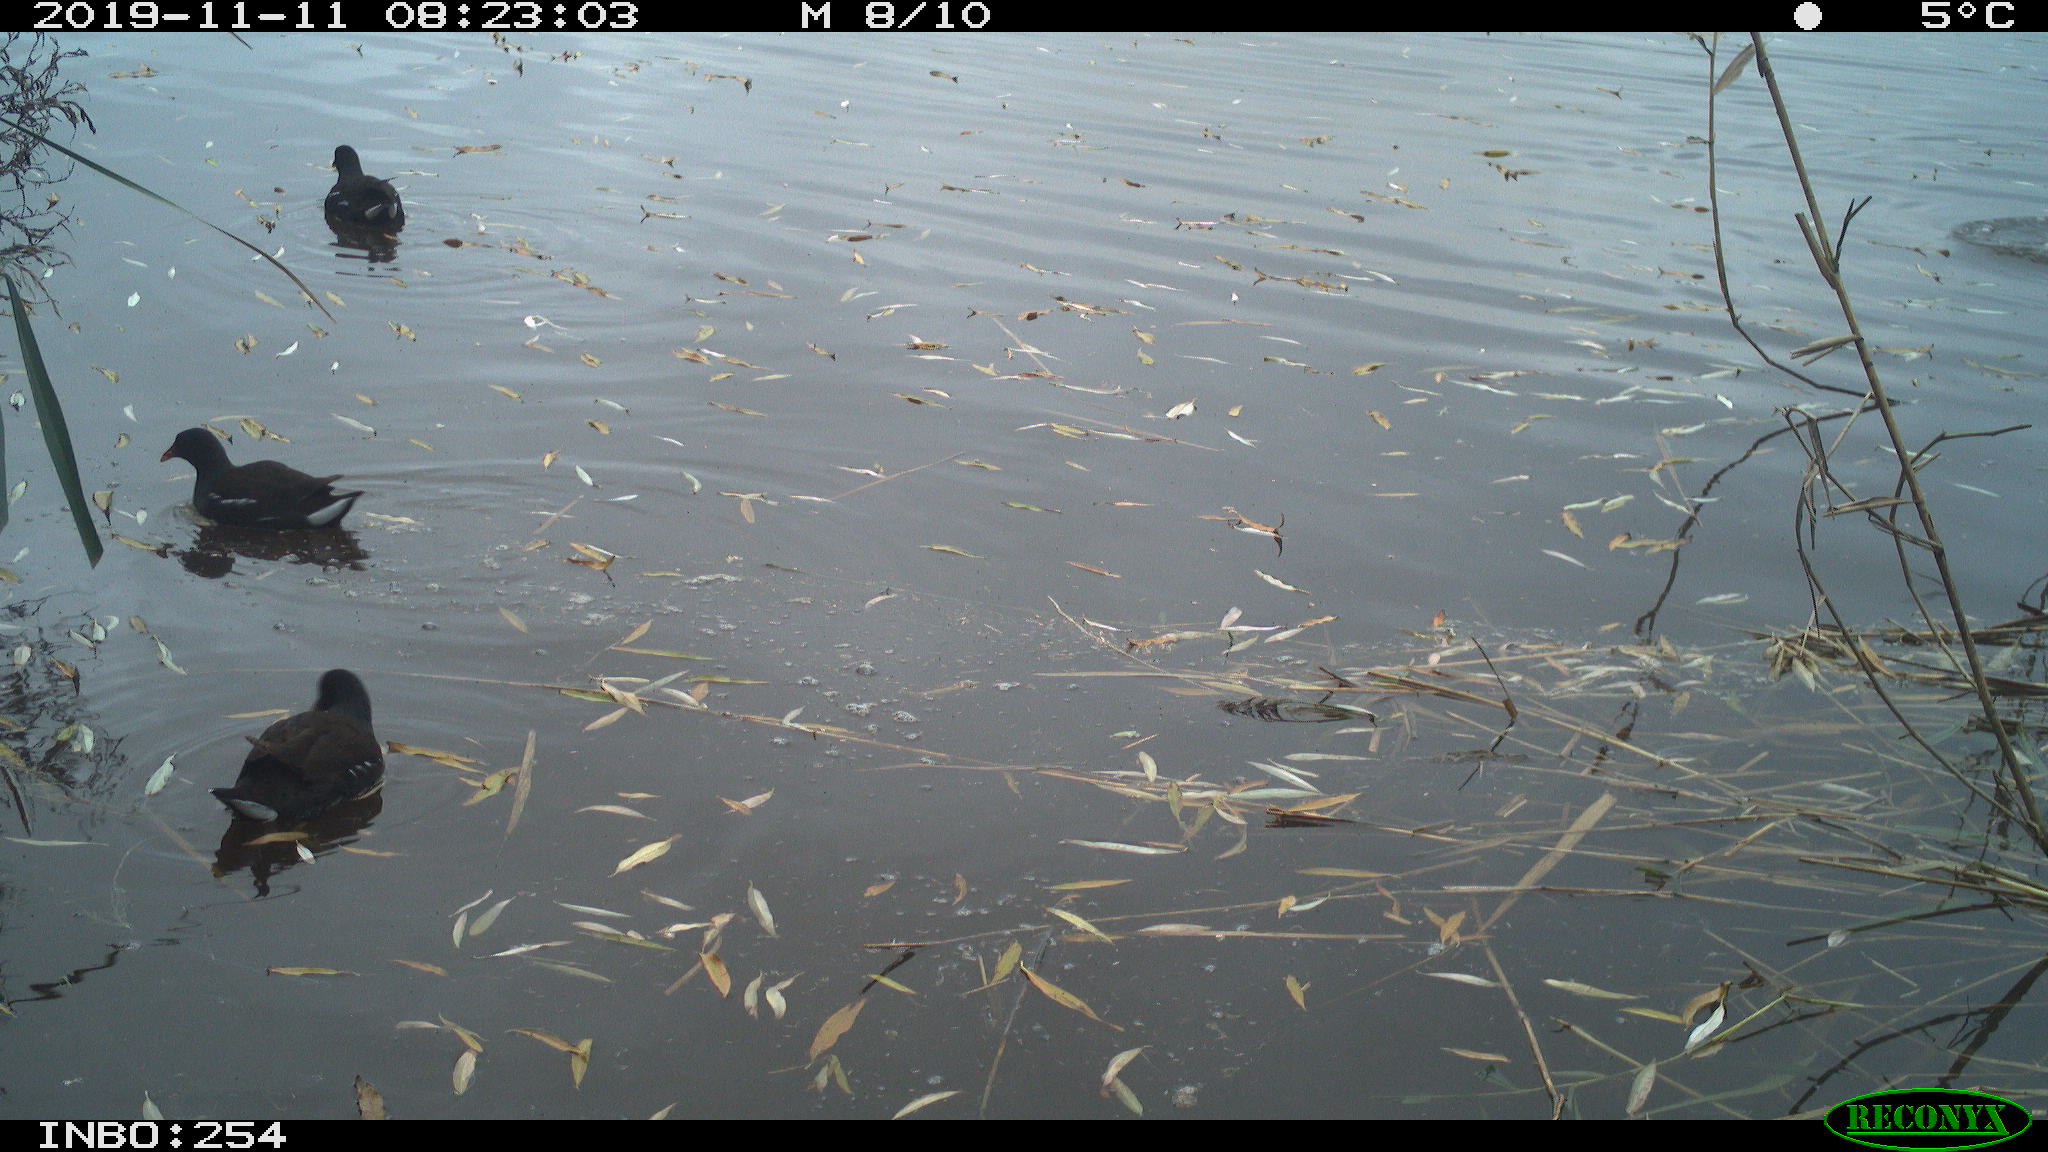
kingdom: Animalia
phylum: Chordata
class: Aves
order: Gruiformes
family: Rallidae
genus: Gallinula
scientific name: Gallinula chloropus
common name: Common moorhen
